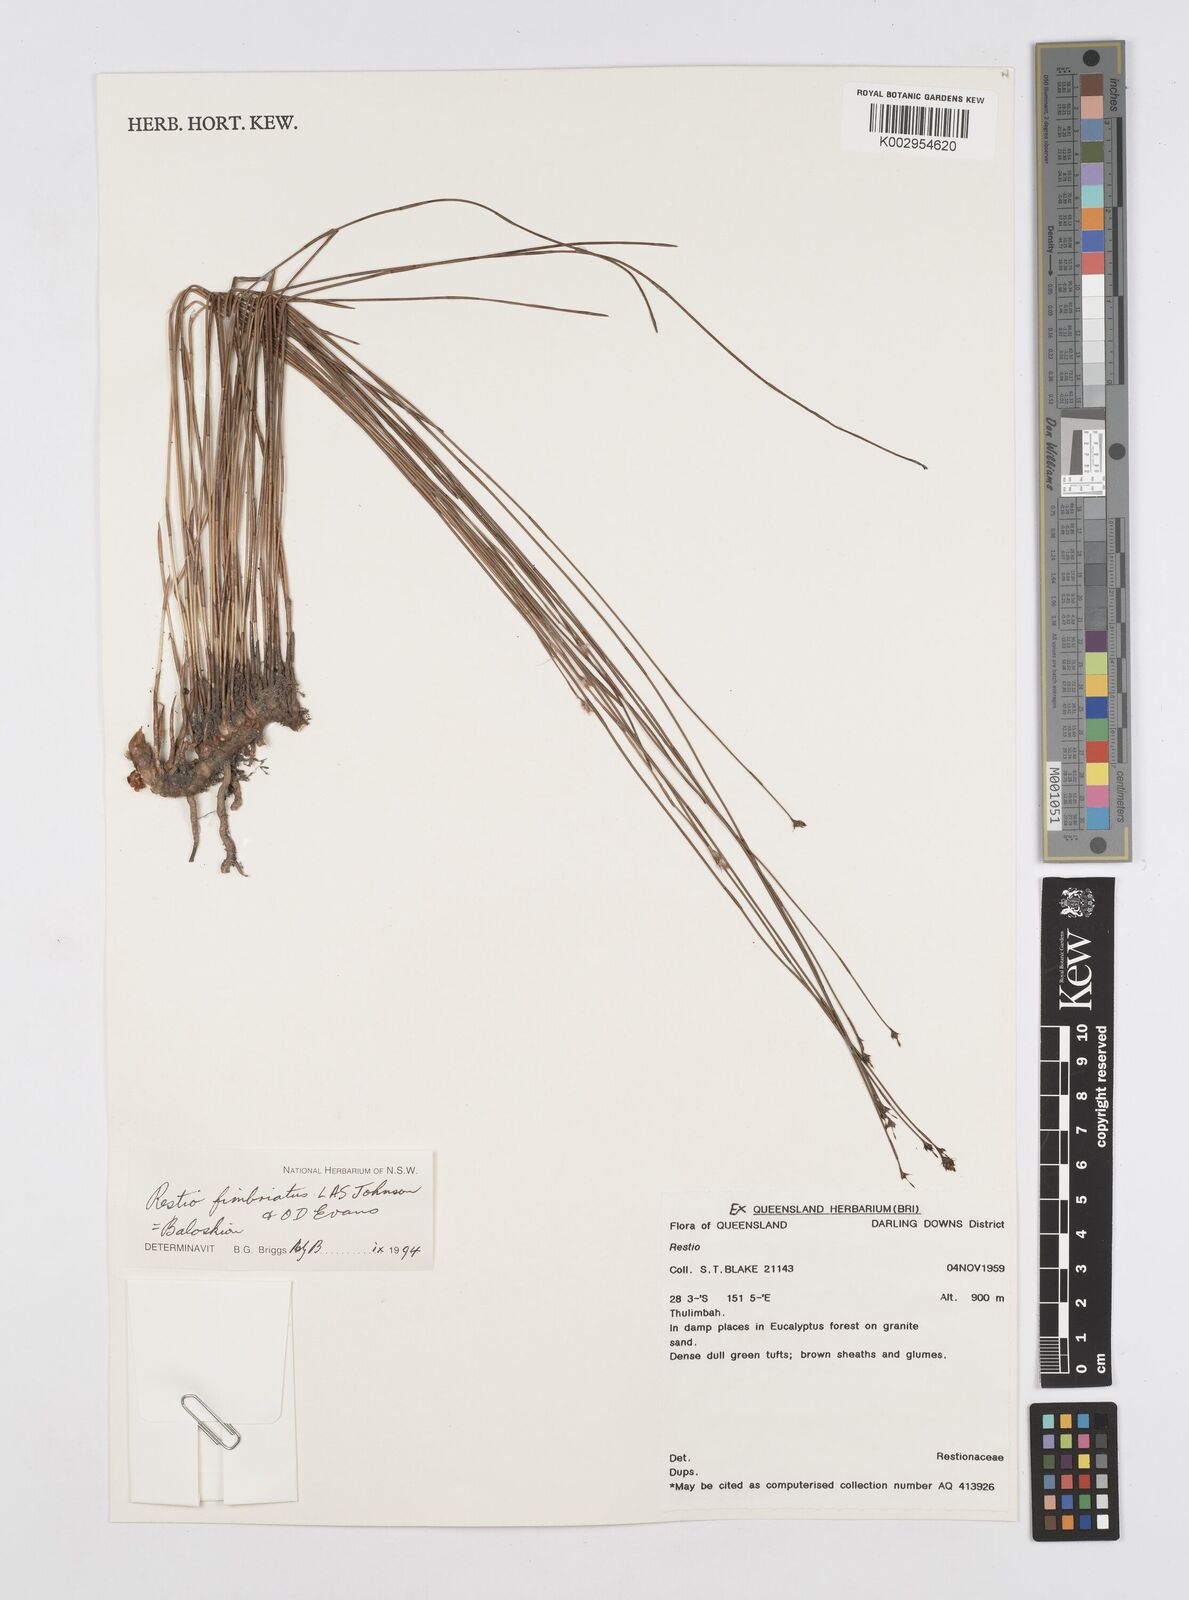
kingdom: Plantae
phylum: Tracheophyta
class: Liliopsida
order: Poales
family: Restionaceae
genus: Baloskion
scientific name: Baloskion fimbriatum
